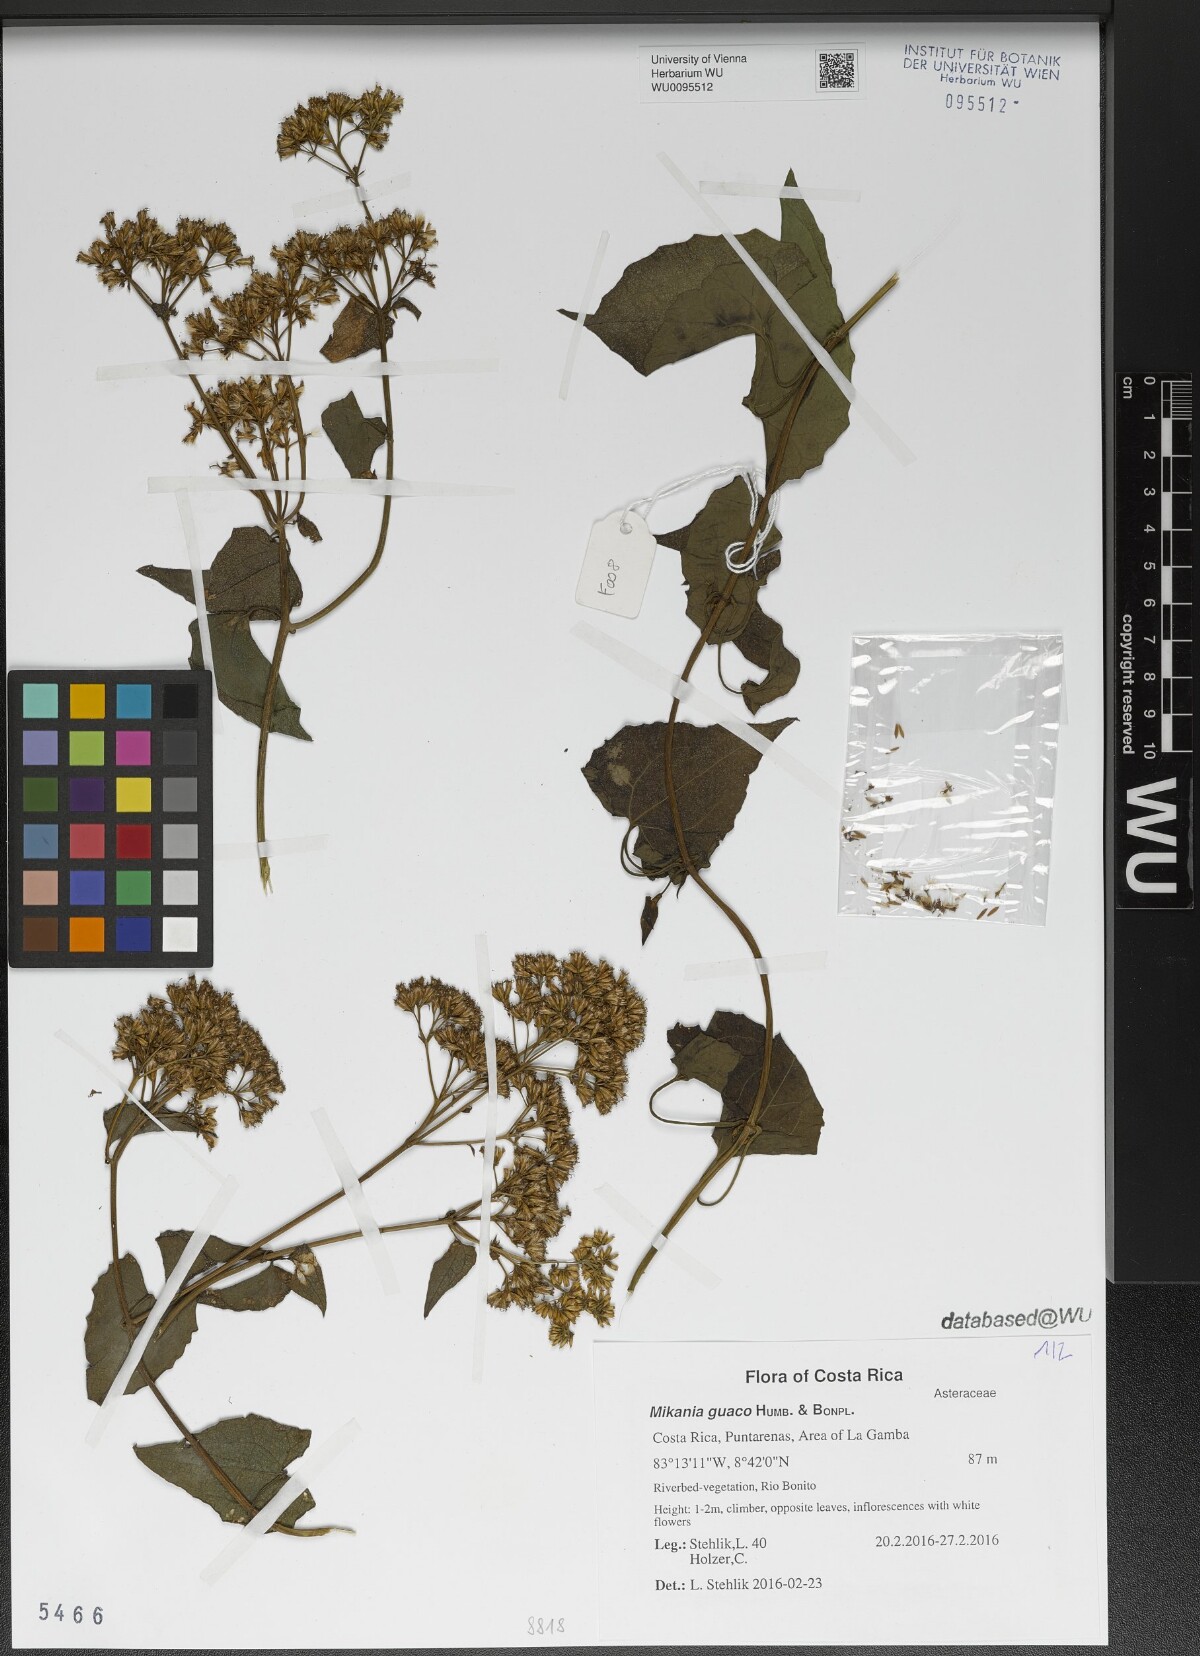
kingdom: Plantae
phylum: Tracheophyta
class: Magnoliopsida
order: Asterales
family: Asteraceae
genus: Mikania
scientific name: Mikania guaco
